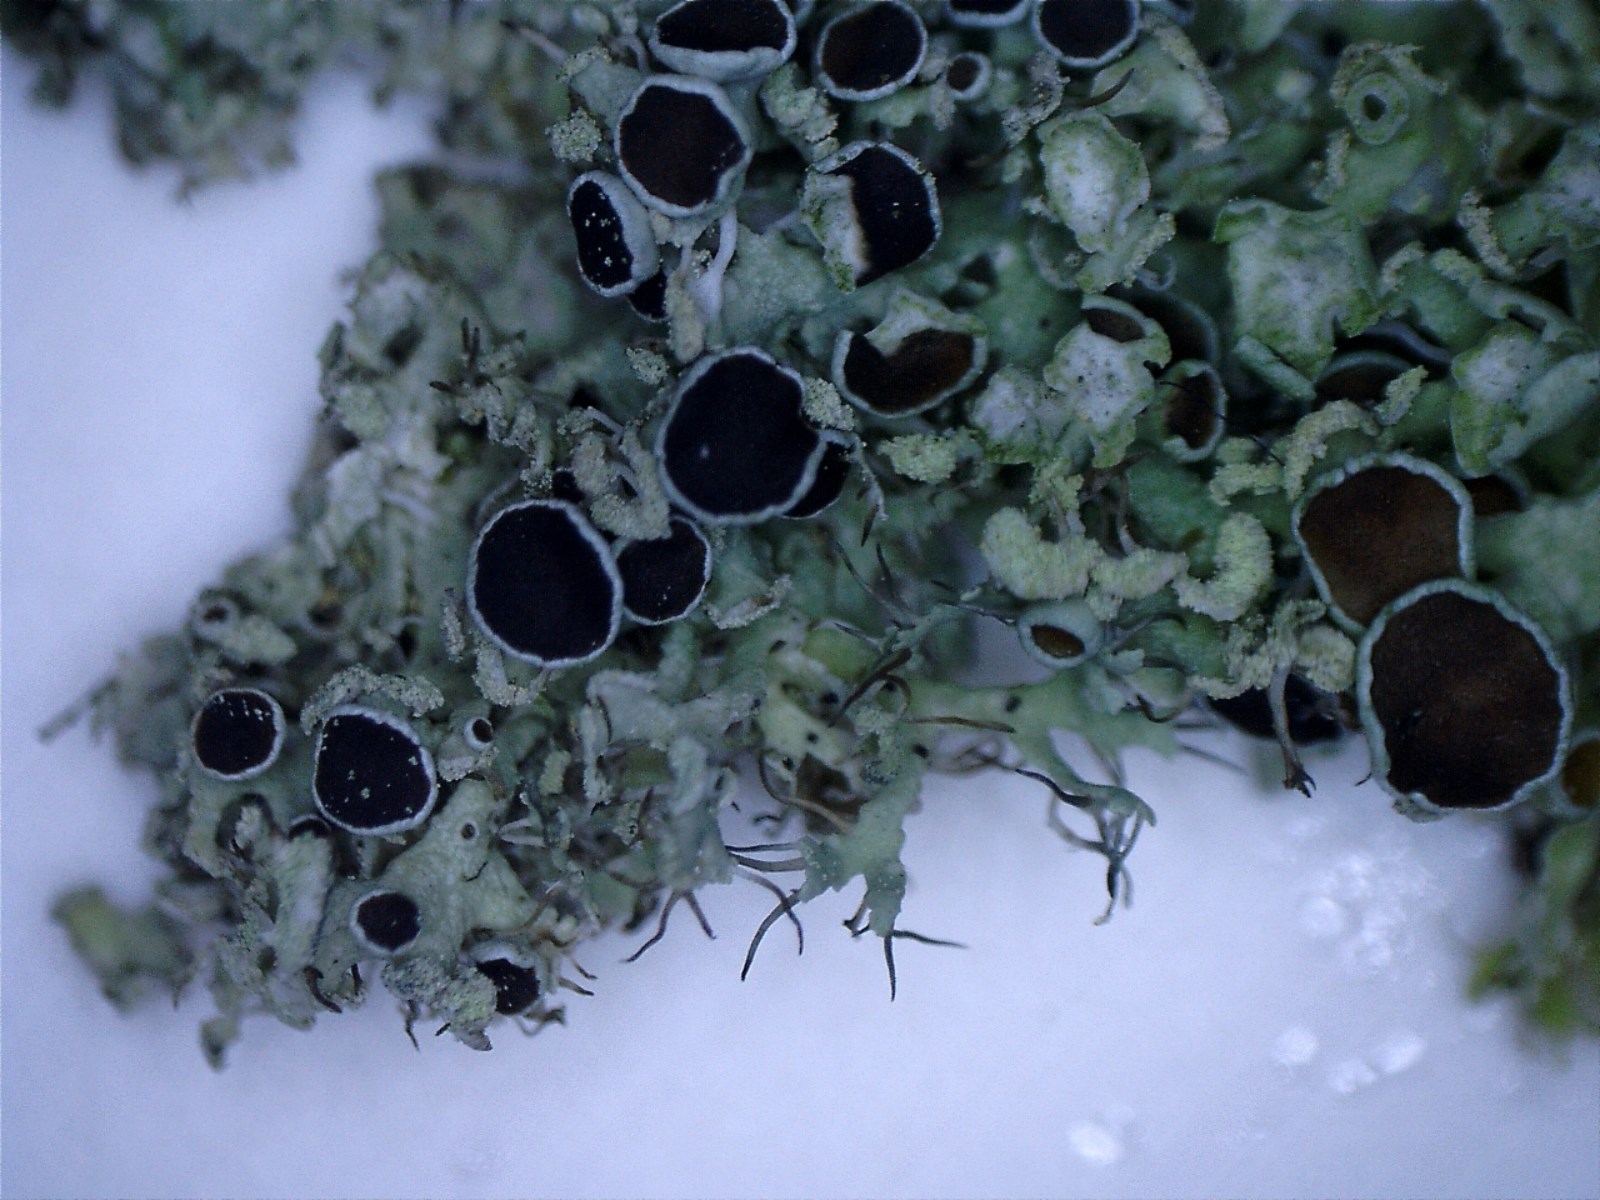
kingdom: Fungi
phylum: Ascomycota
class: Lecanoromycetes
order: Caliciales
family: Physciaceae
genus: Physcia
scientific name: Physcia tenella
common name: spæd rosetlav
